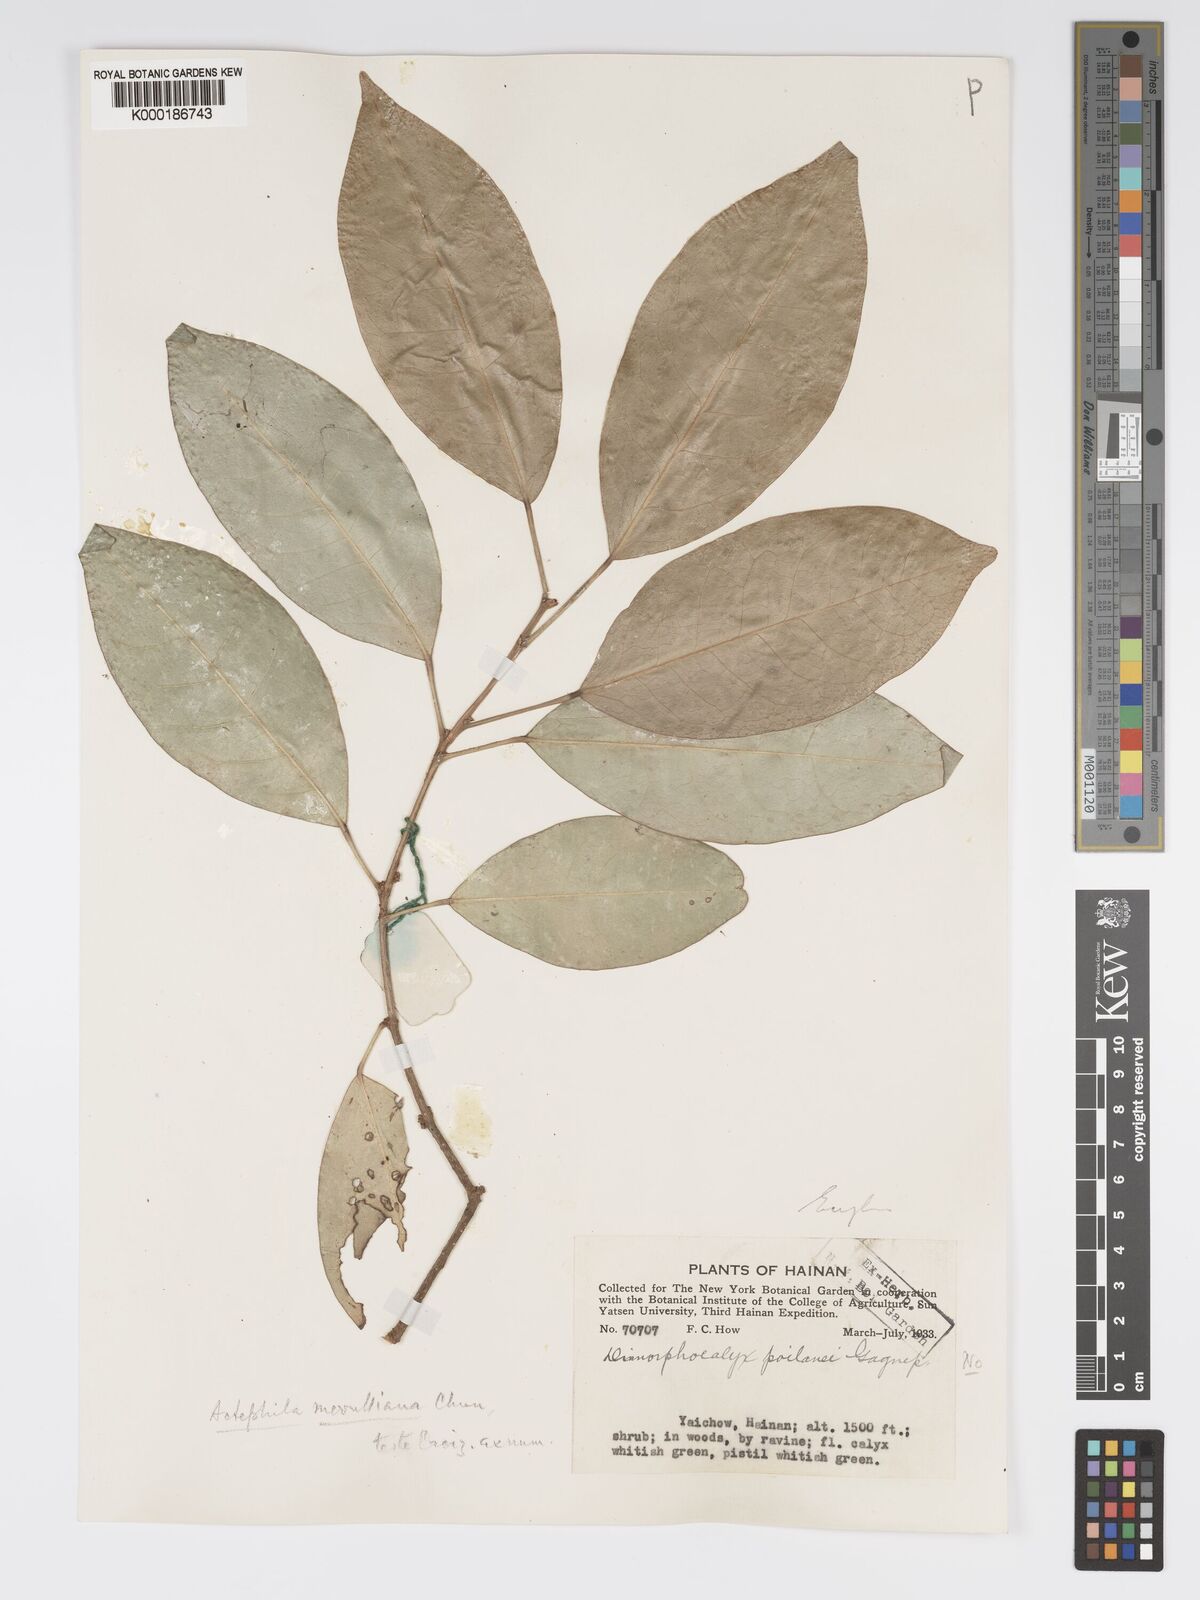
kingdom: Plantae
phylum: Tracheophyta
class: Magnoliopsida
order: Malpighiales
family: Phyllanthaceae
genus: Actephila
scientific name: Actephila merrilliana
